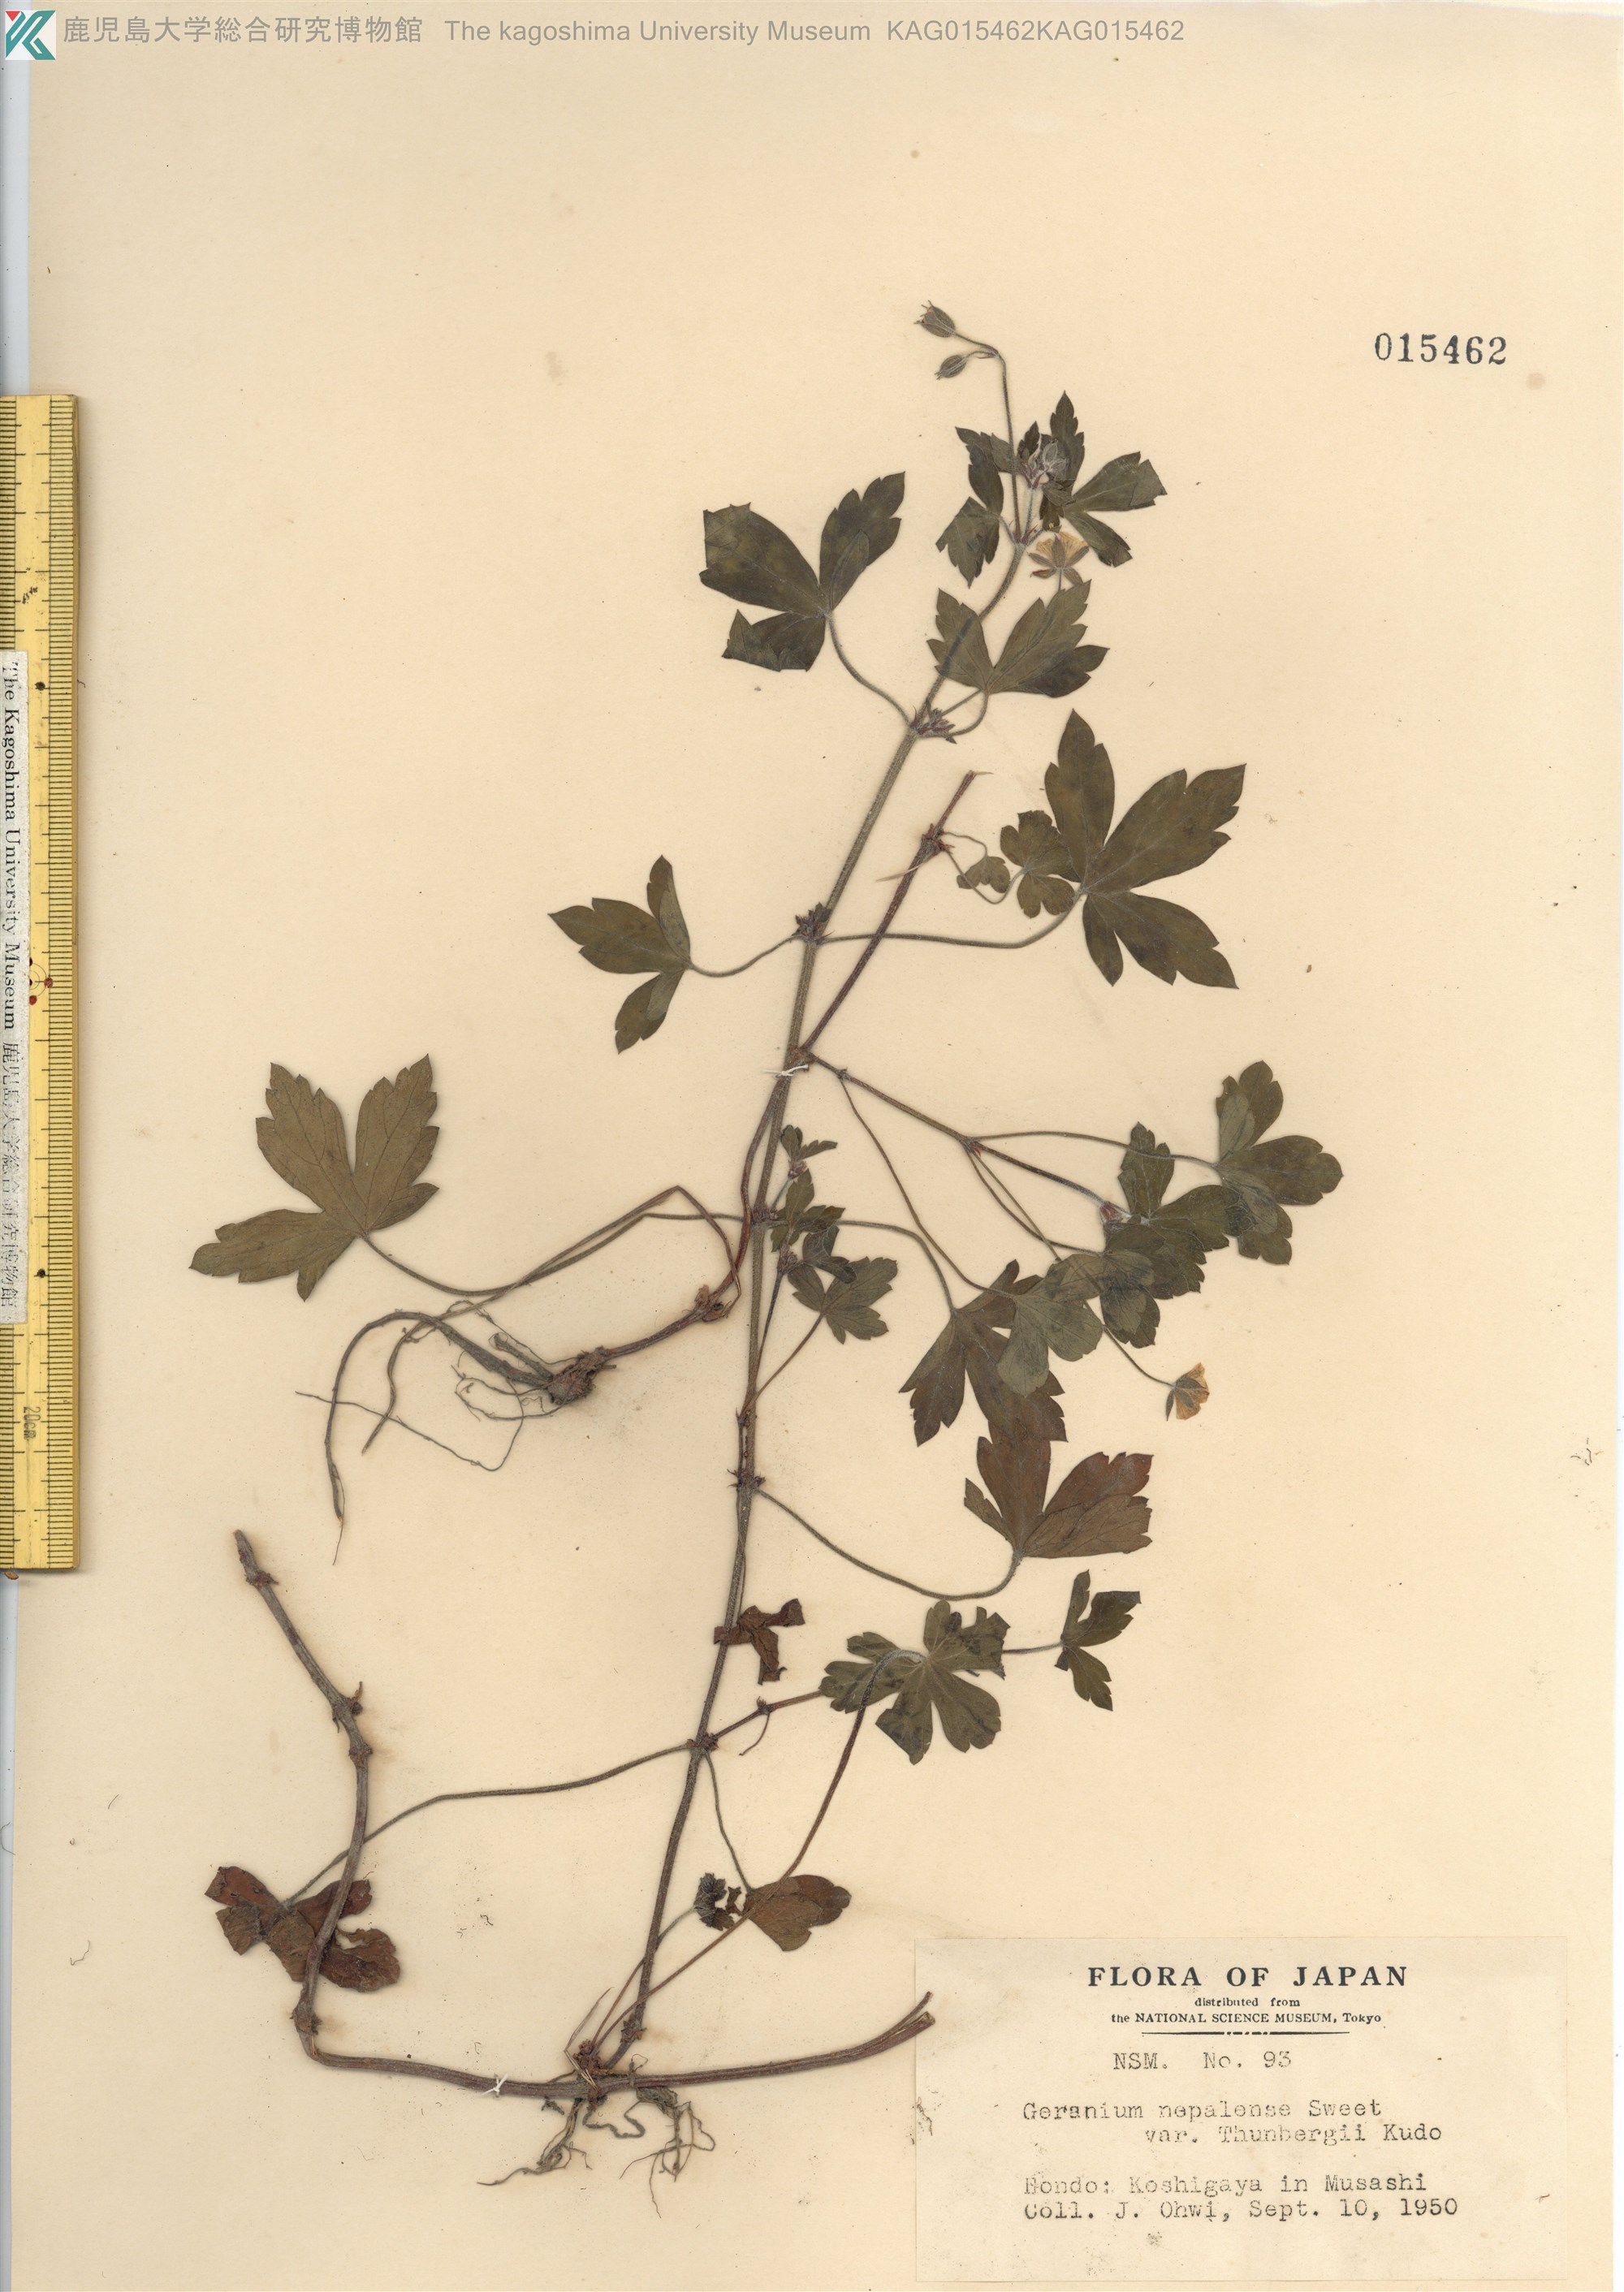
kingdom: Plantae
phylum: Tracheophyta
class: Magnoliopsida
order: Geraniales
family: Geraniaceae
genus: Geranium
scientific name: Geranium thunbergii
